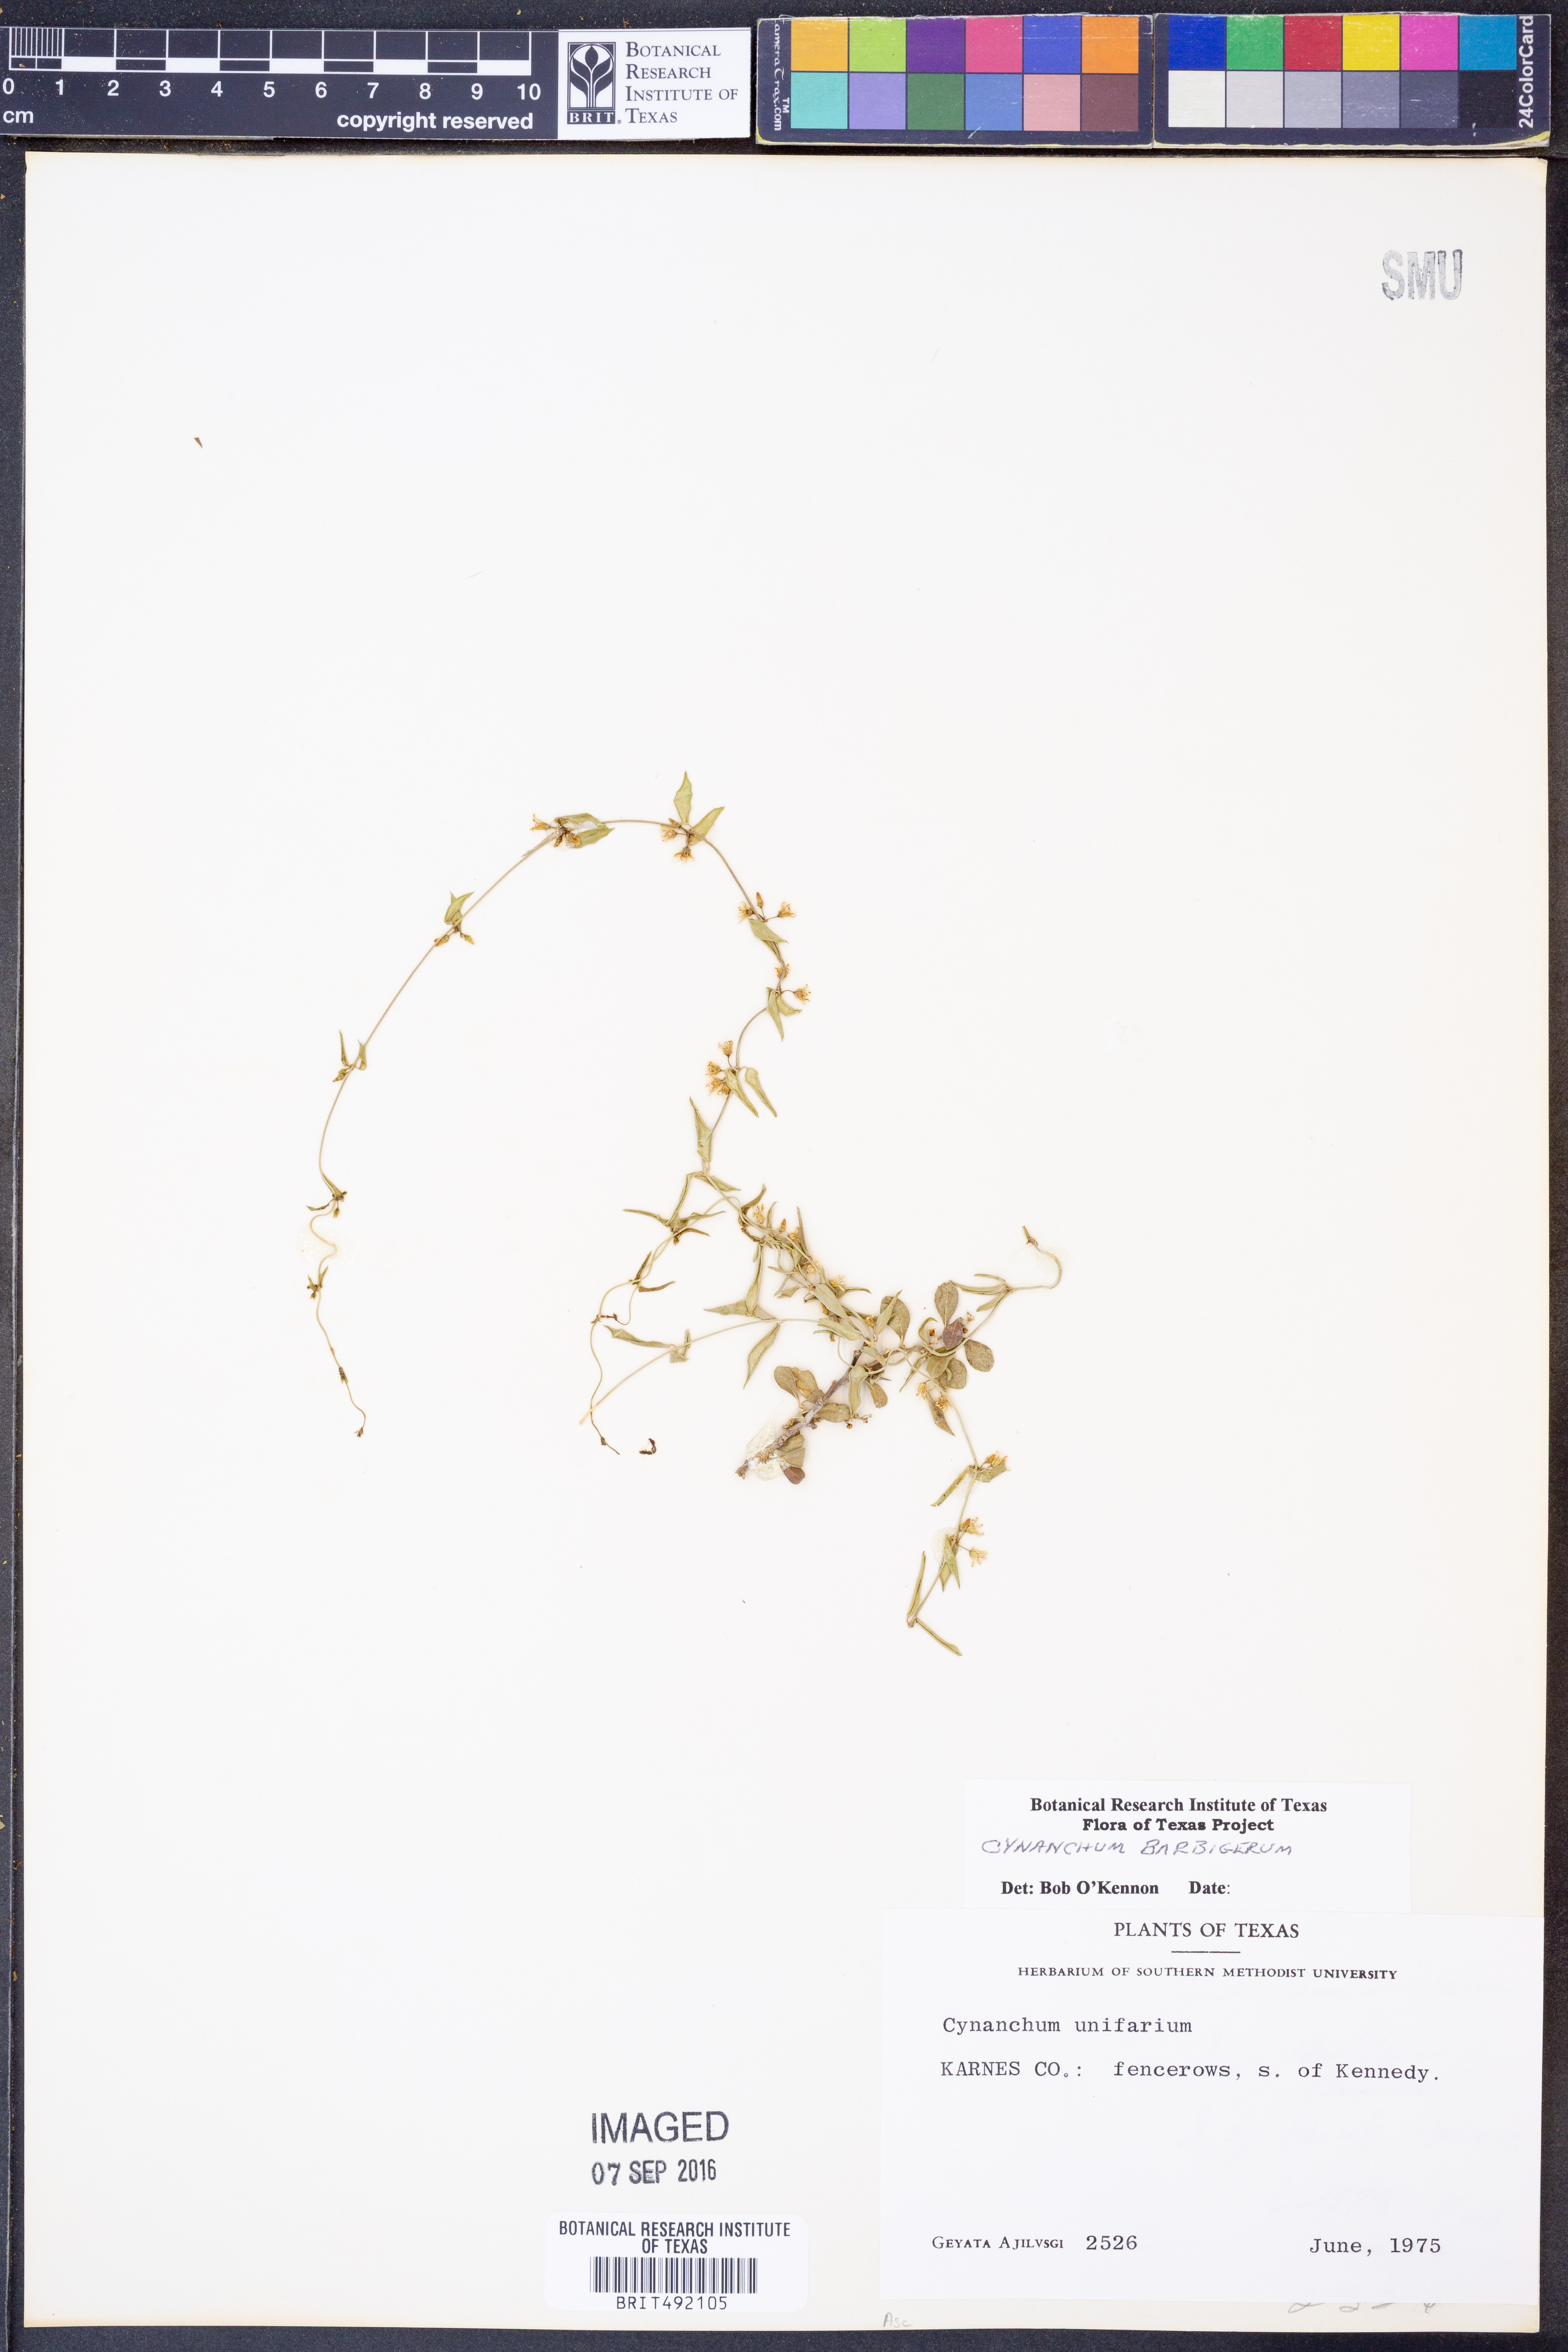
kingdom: Plantae
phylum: Tracheophyta
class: Magnoliopsida
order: Gentianales
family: Apocynaceae
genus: Metastelma
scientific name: Metastelma barbigerum
